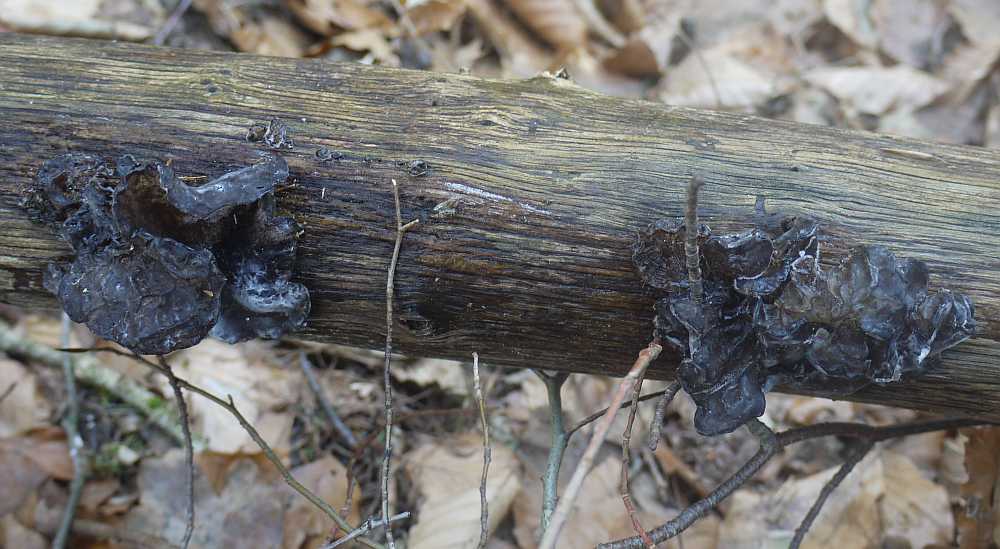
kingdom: Fungi
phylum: Basidiomycota
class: Agaricomycetes
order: Auriculariales
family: Auriculariaceae
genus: Exidia
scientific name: Exidia glandulosa
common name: ege-bævretop
